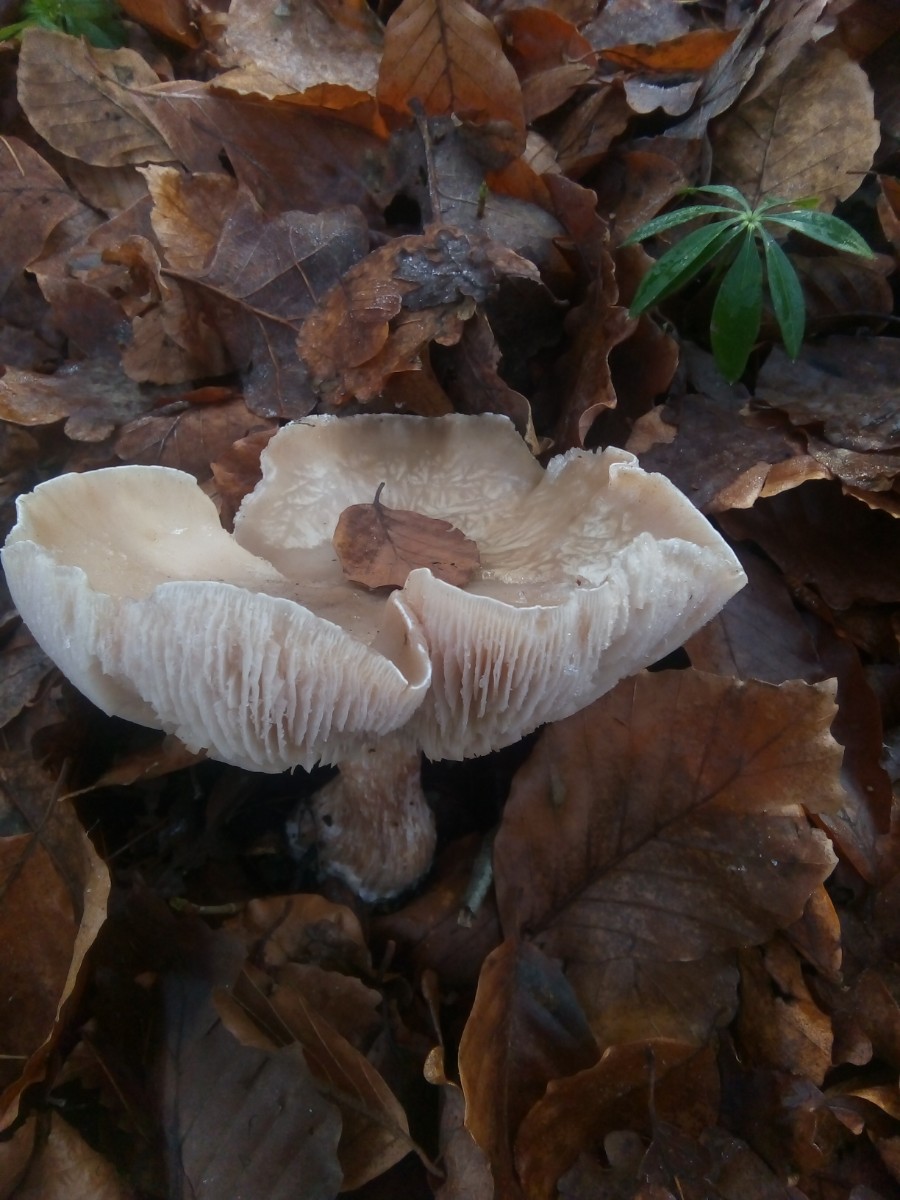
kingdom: Fungi
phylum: Basidiomycota
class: Agaricomycetes
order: Agaricales
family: Tricholomataceae
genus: Lepista
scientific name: Lepista personata
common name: bleg hekseringshat
